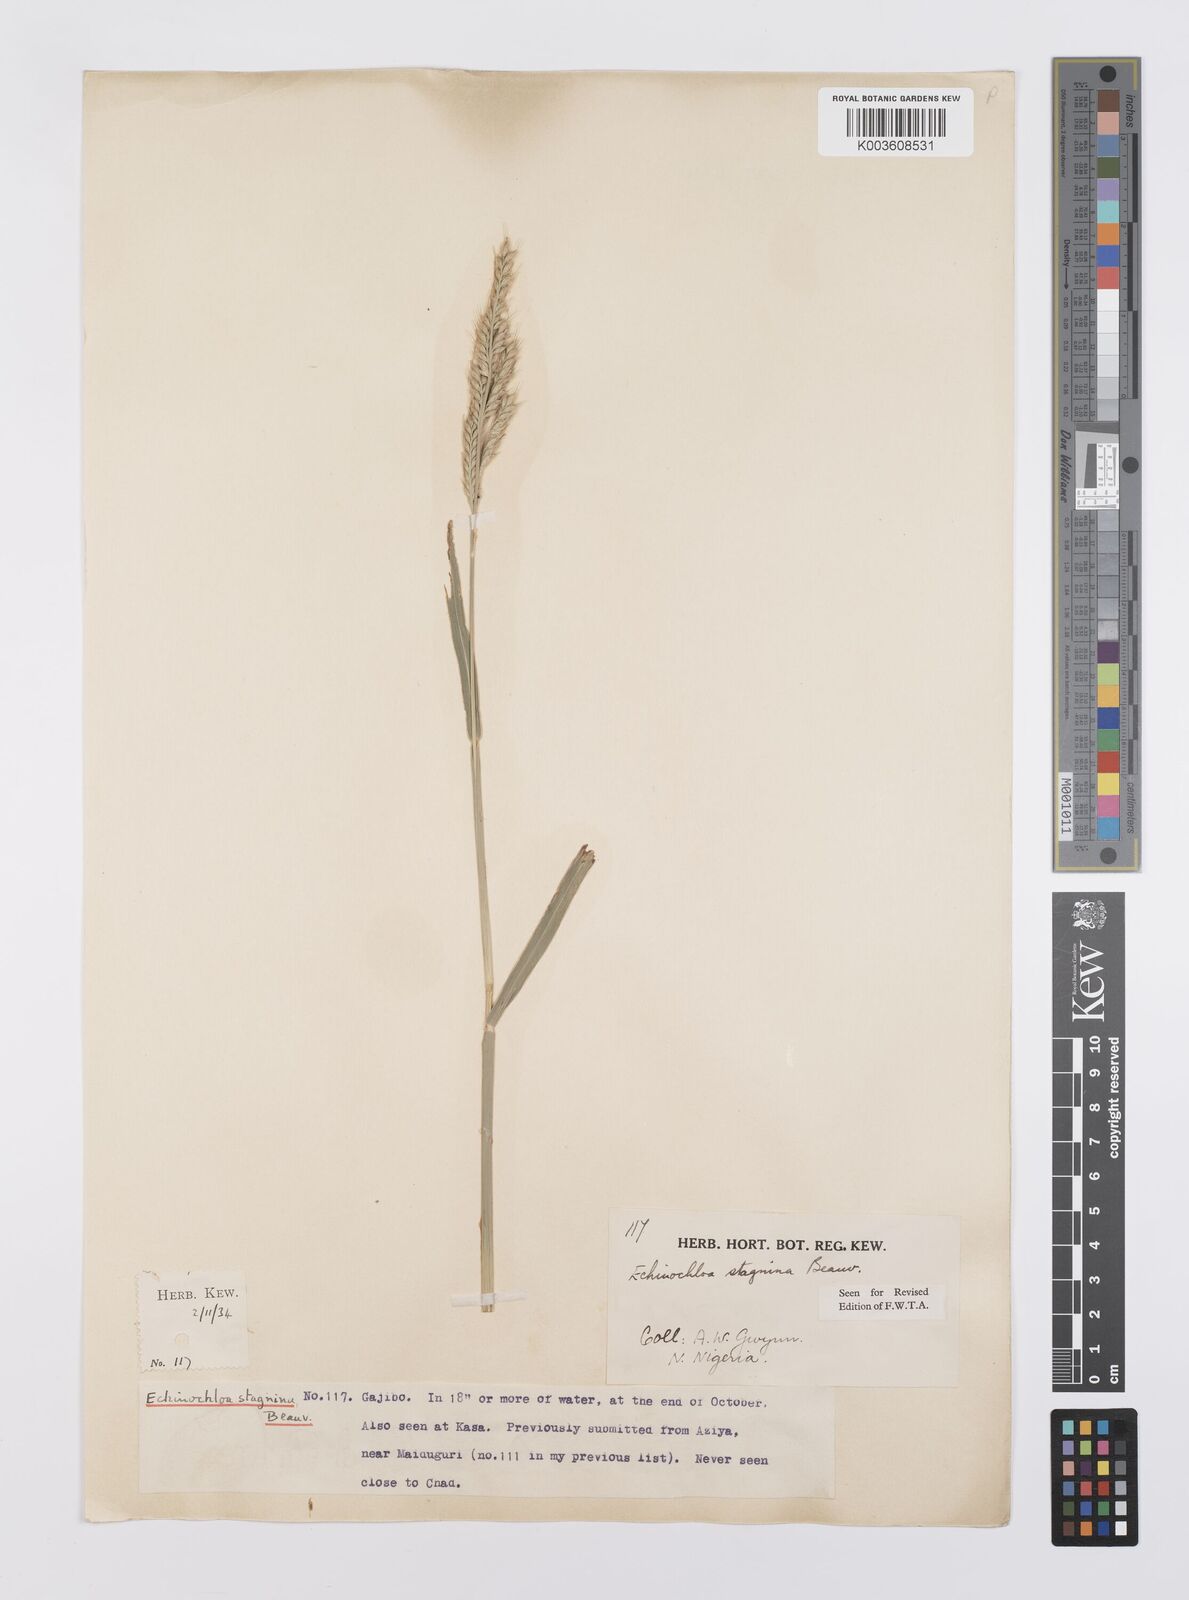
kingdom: Plantae
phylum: Tracheophyta
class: Liliopsida
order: Poales
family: Poaceae
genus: Echinochloa
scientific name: Echinochloa stagnina
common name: Burgu grass
